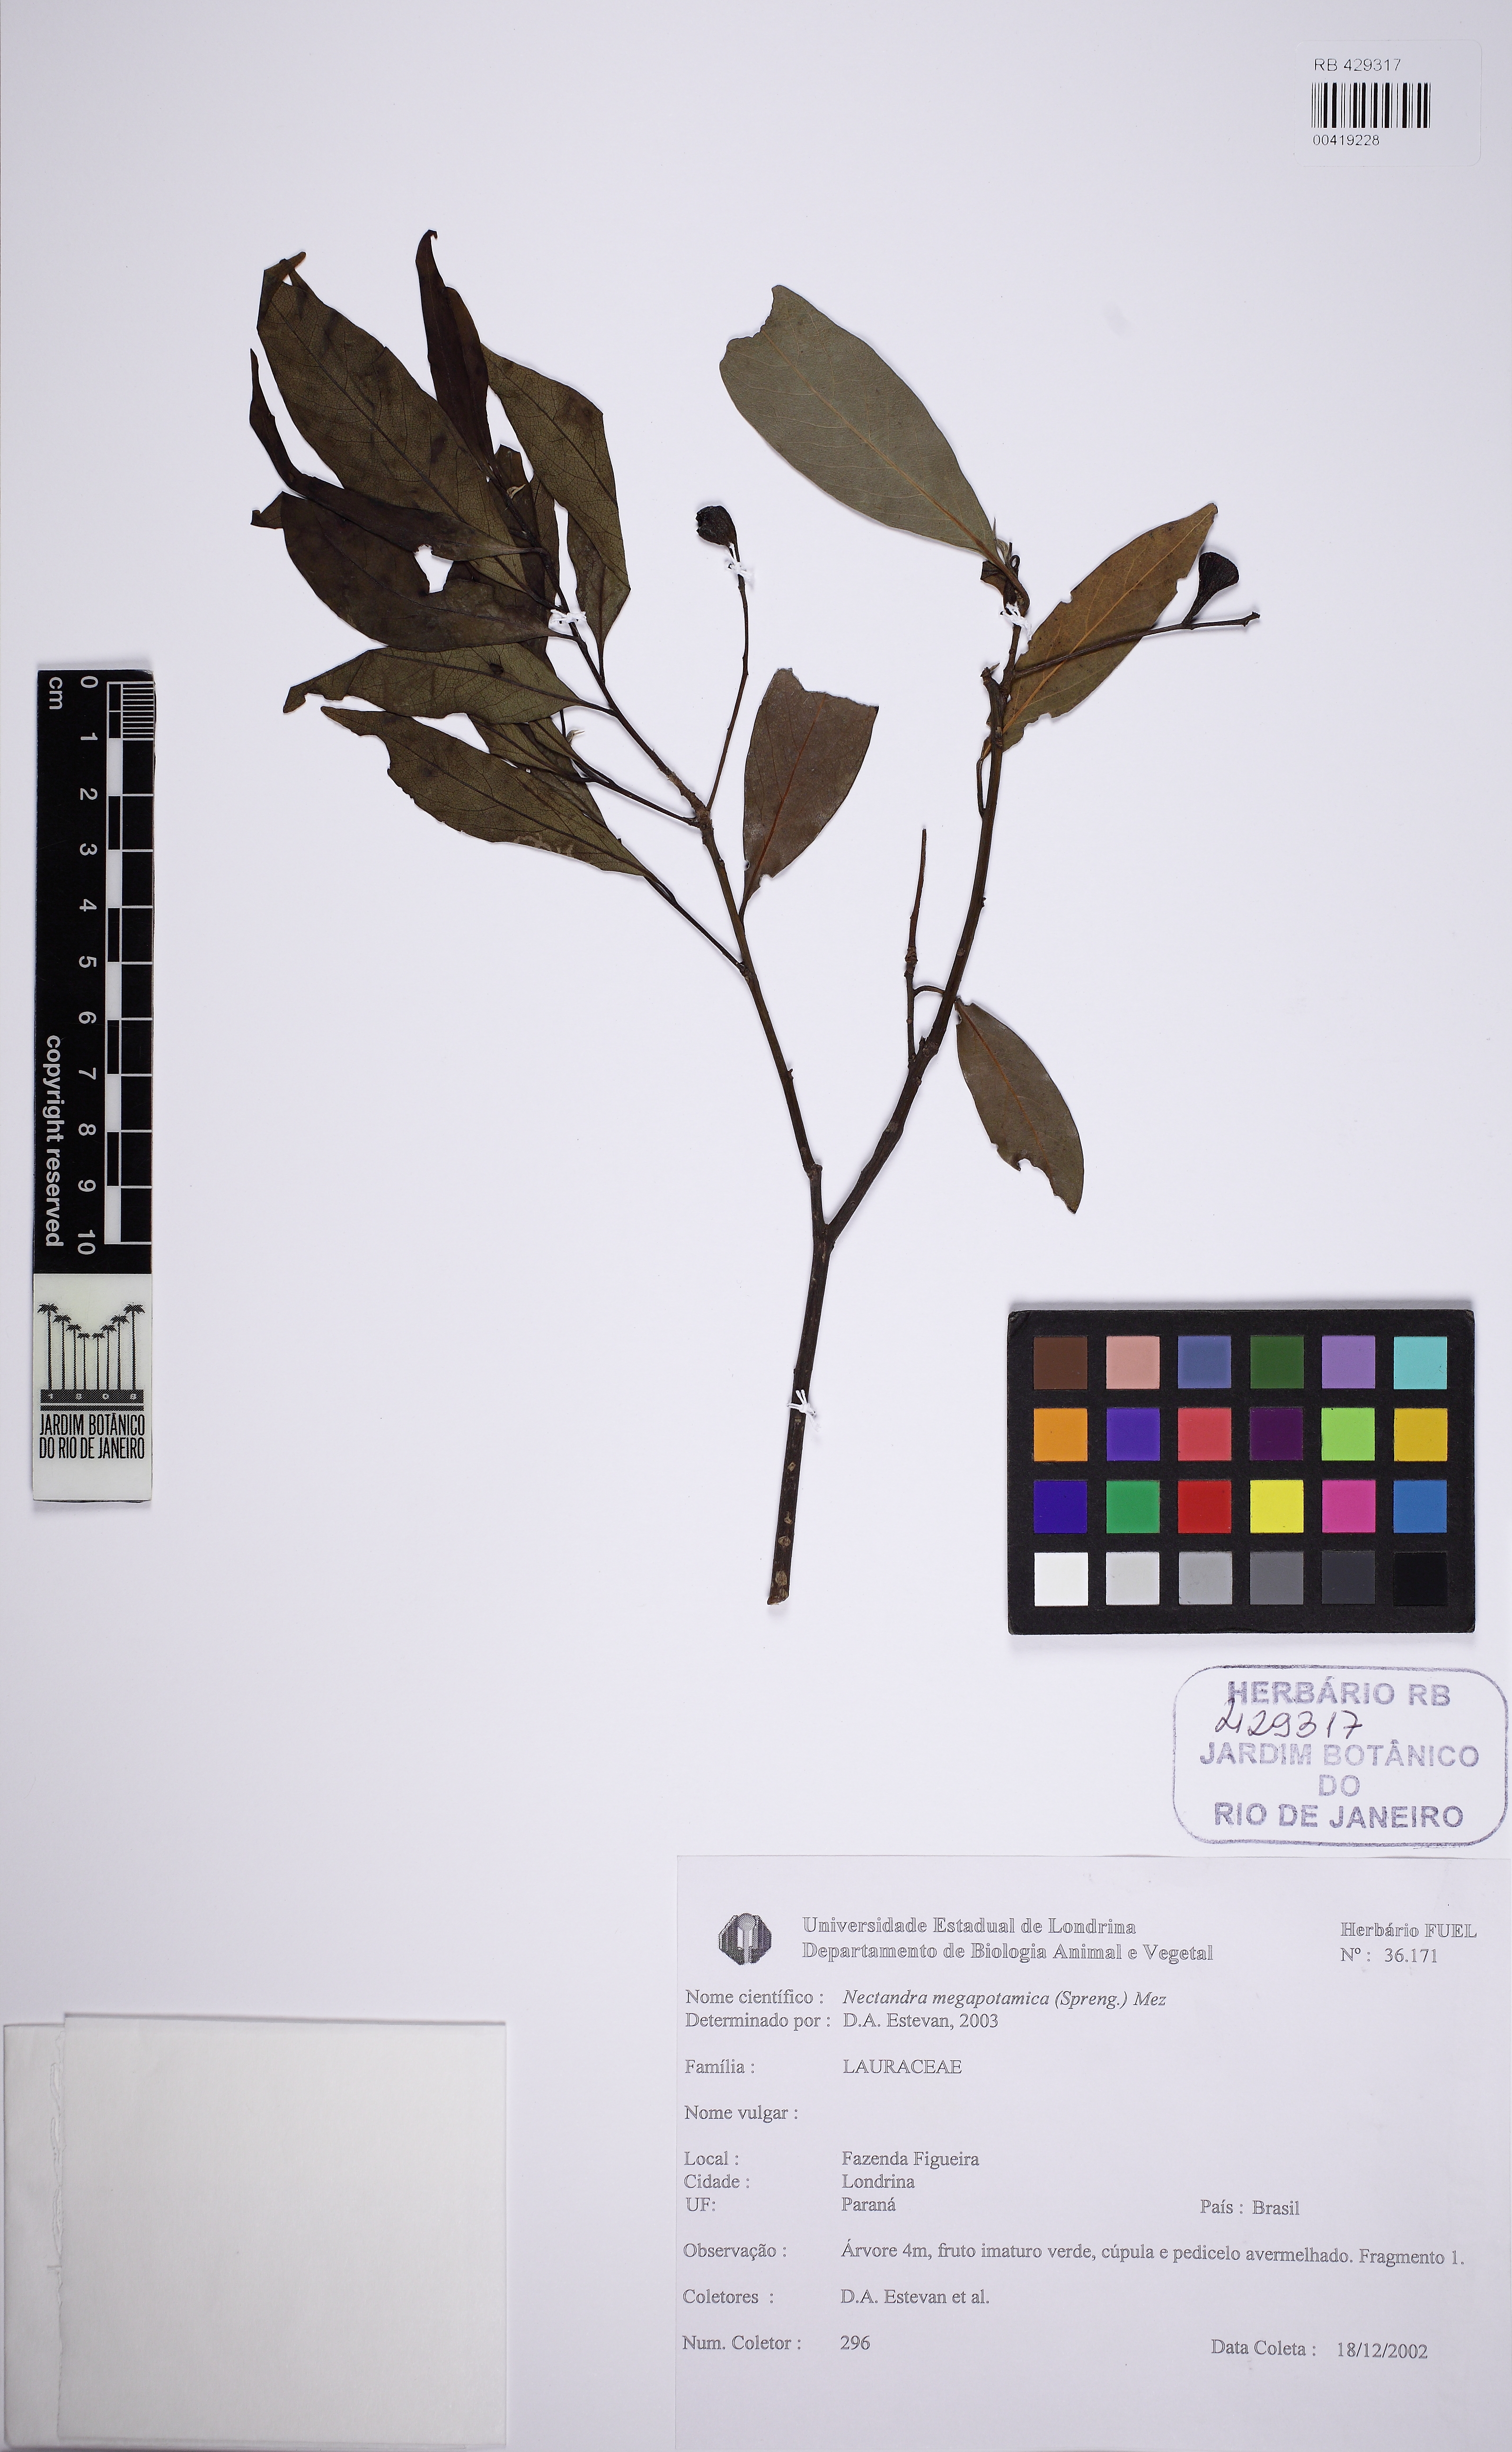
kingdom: Plantae
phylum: Tracheophyta
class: Magnoliopsida
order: Laurales
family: Lauraceae
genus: Nectandra
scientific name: Nectandra megapotamica
